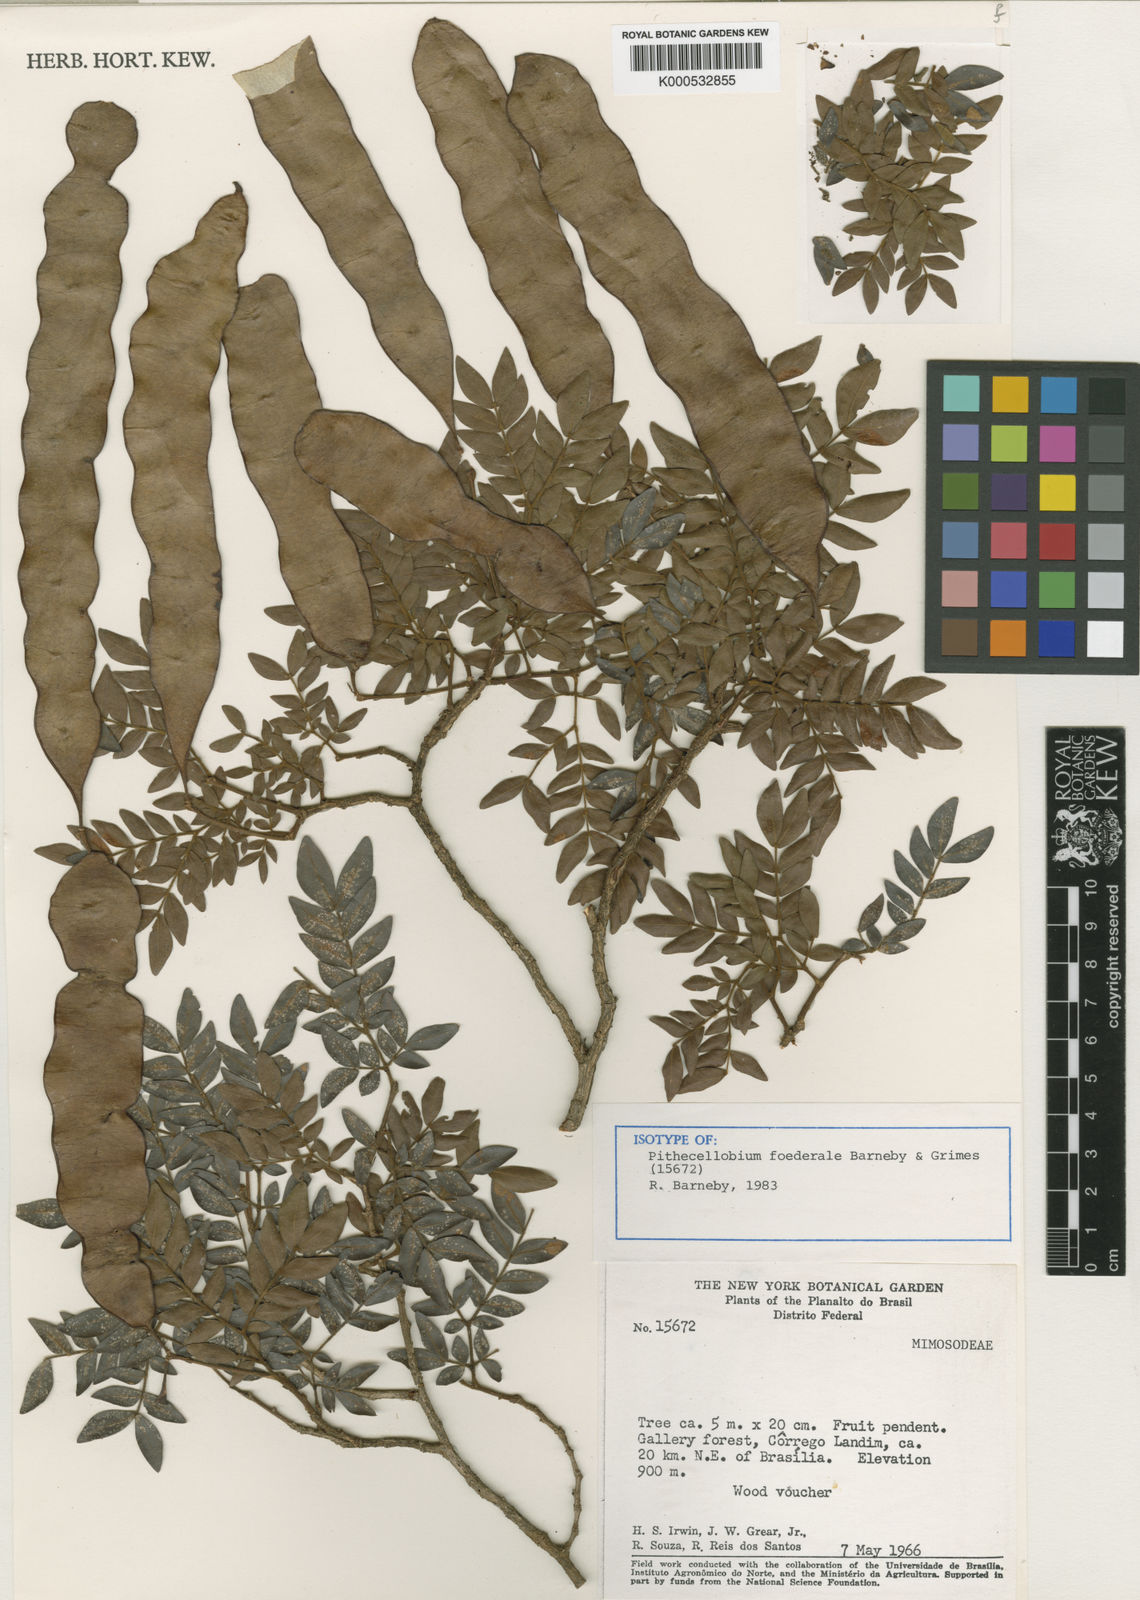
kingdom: Plantae
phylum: Tracheophyta
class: Magnoliopsida
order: Fabales
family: Fabaceae
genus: Leucochloron
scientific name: Leucochloron foederale
